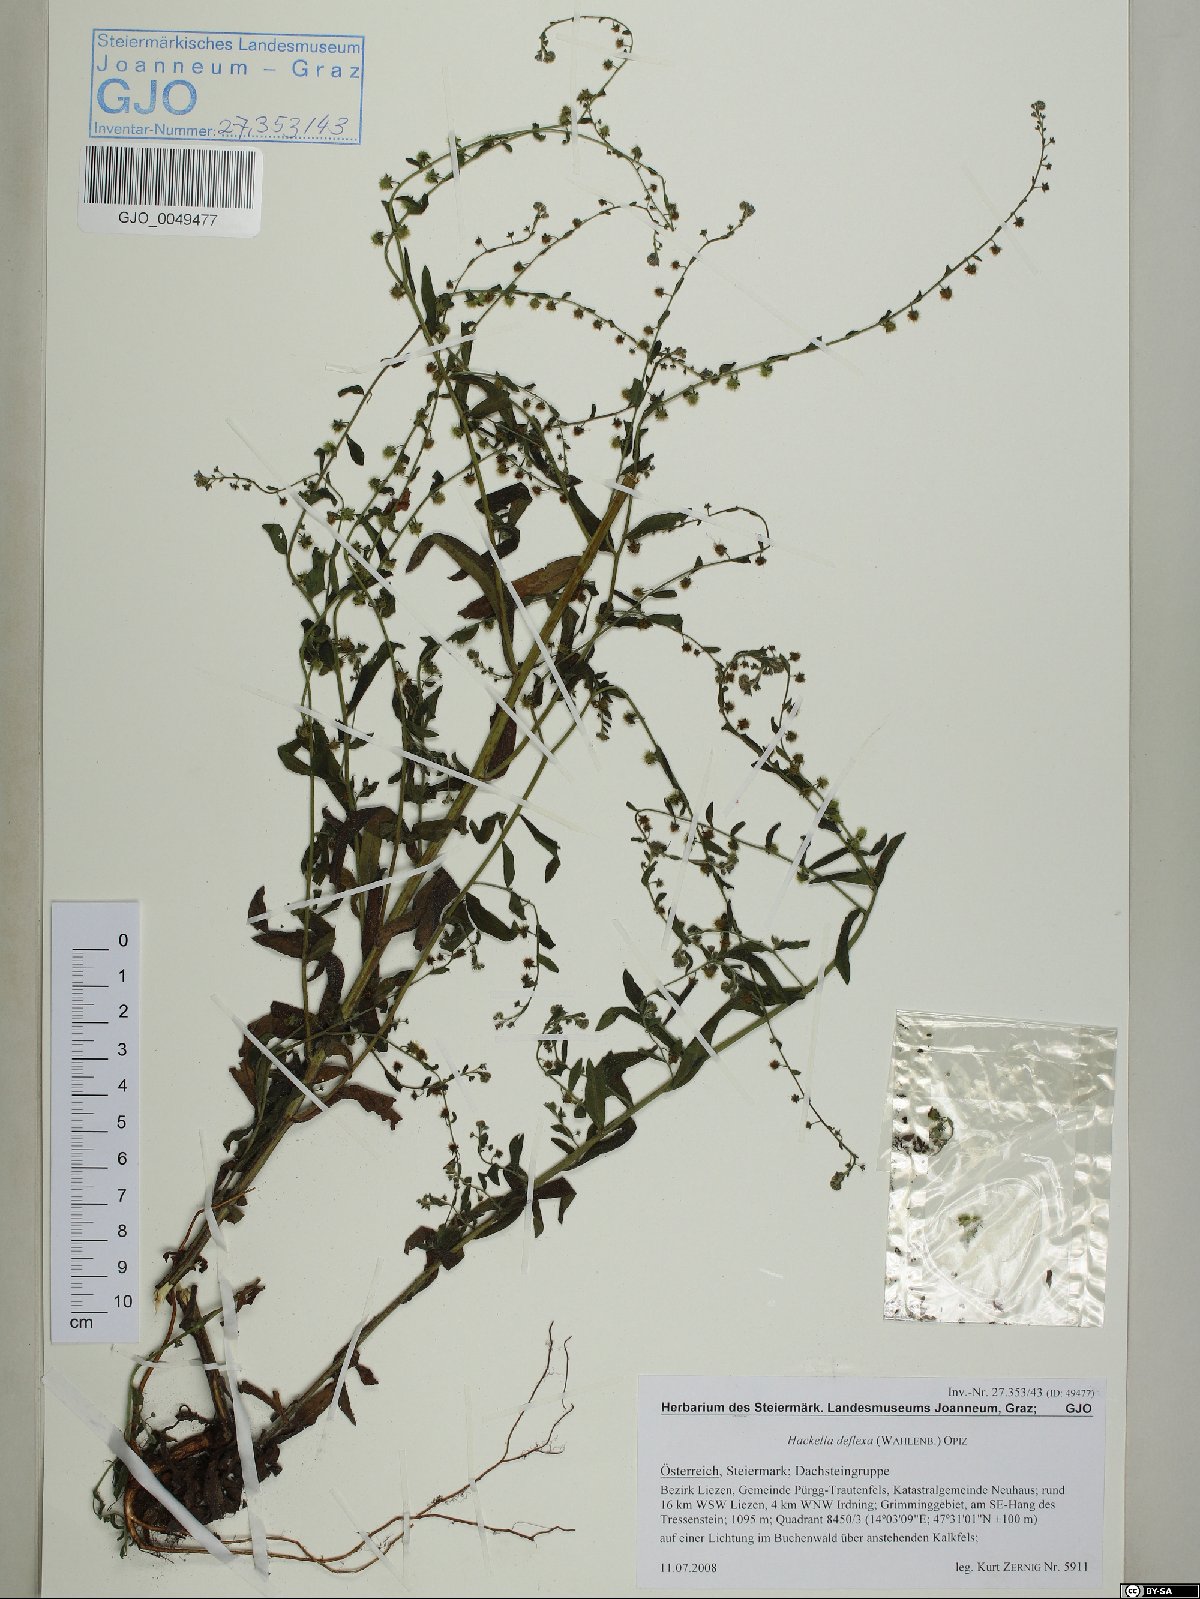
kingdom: Plantae
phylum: Tracheophyta
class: Magnoliopsida
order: Boraginales
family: Boraginaceae
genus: Hackelia
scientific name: Hackelia deflexa
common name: Nodding stickseed
